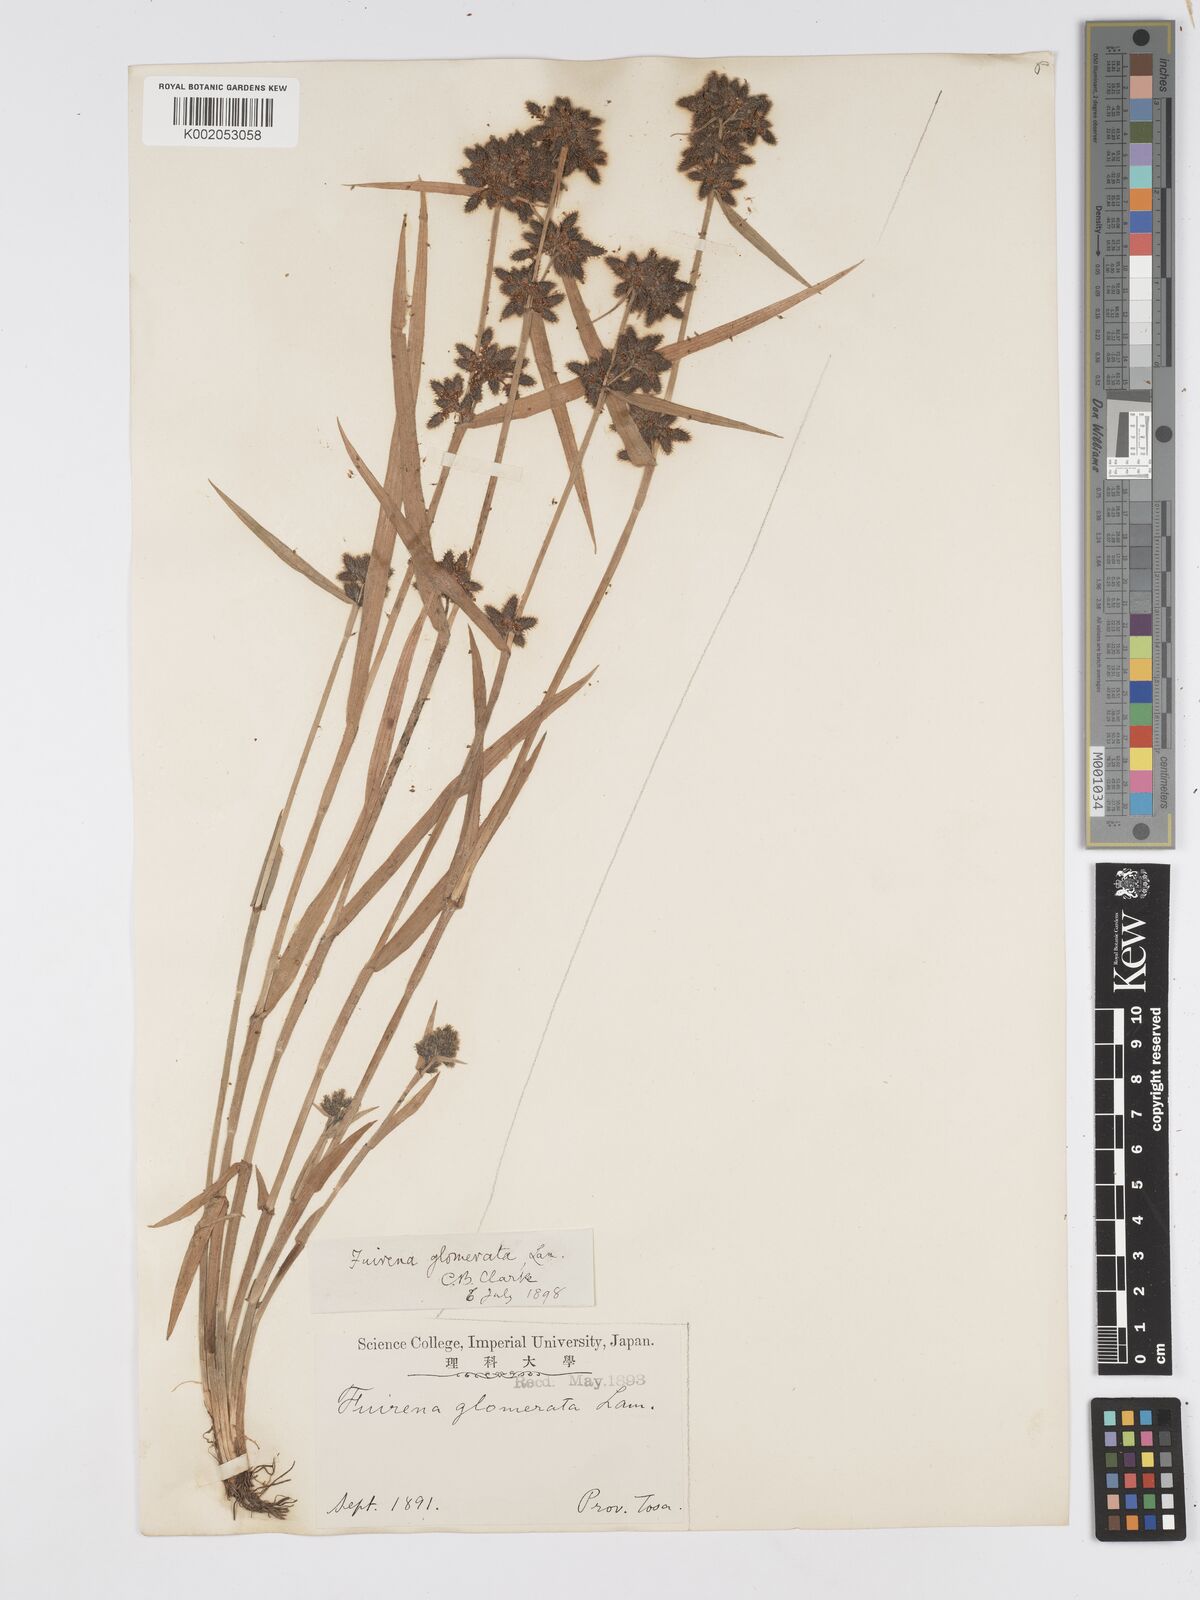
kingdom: Plantae
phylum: Tracheophyta
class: Liliopsida
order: Poales
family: Cyperaceae
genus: Fuirena
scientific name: Fuirena ciliaris
